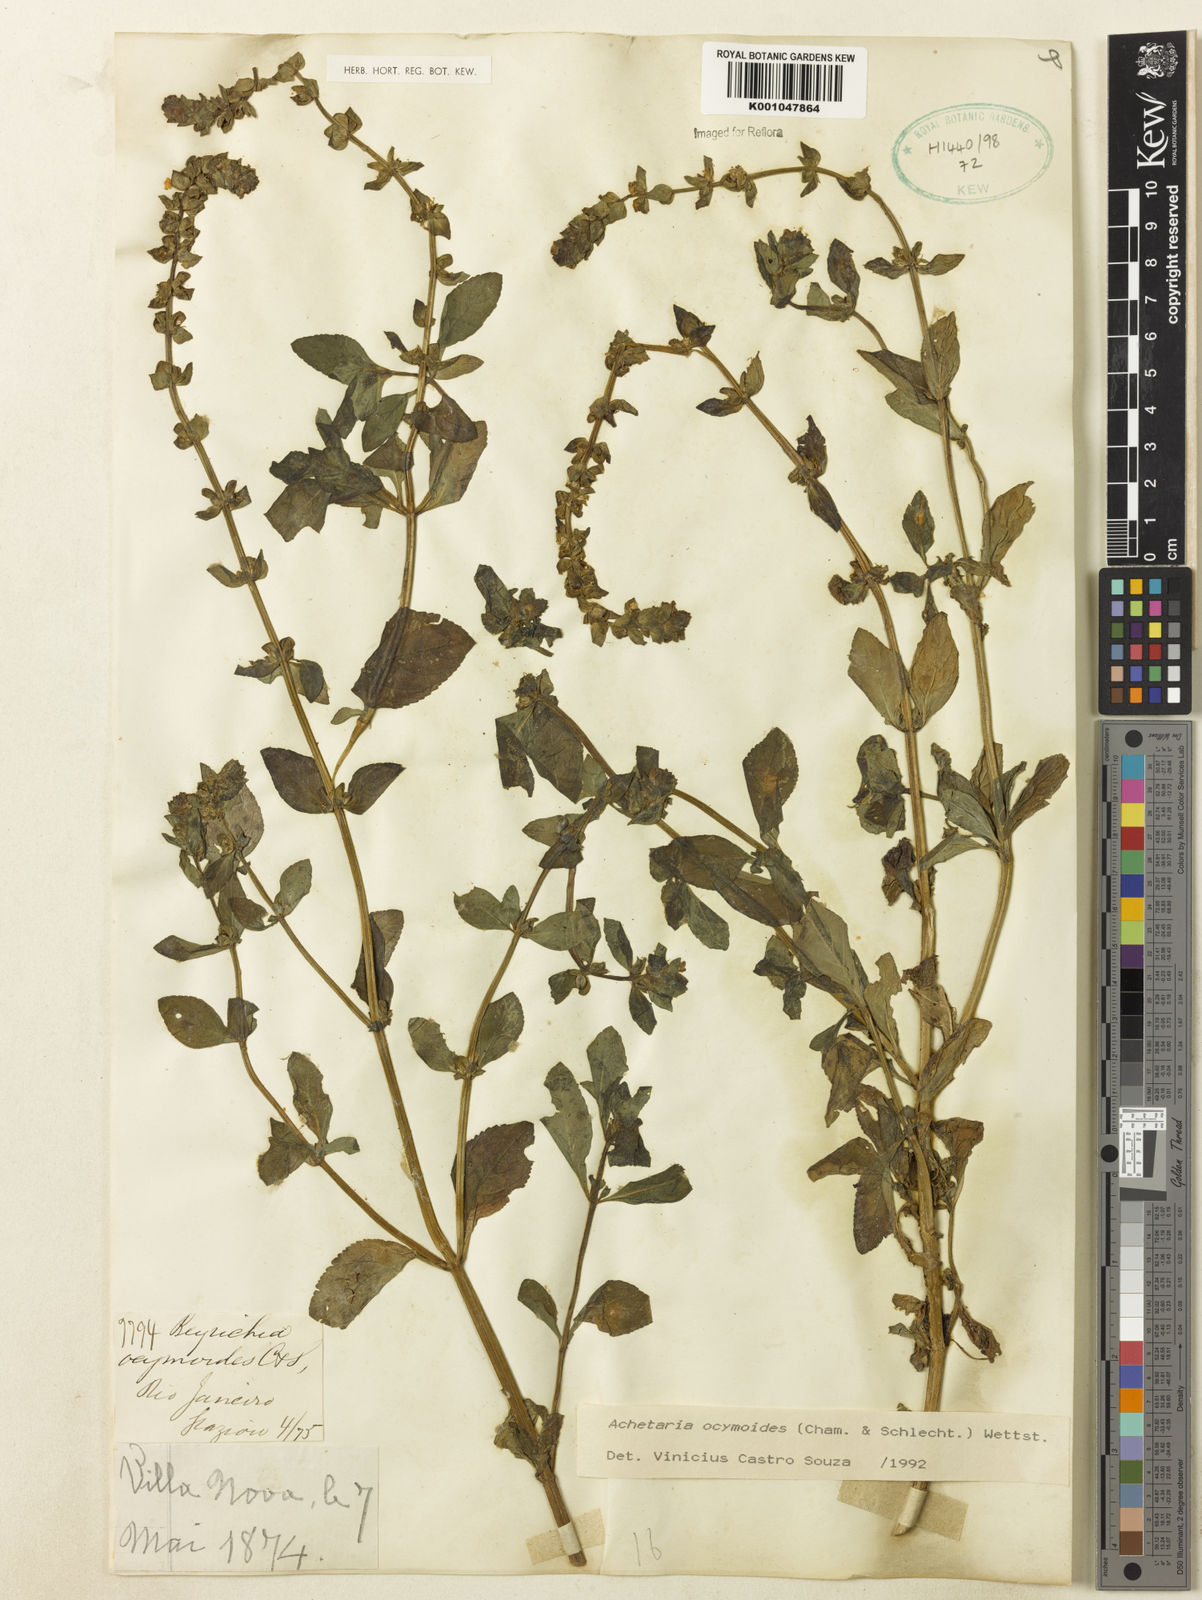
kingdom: Plantae
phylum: Tracheophyta
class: Magnoliopsida
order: Lamiales
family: Plantaginaceae
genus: Matourea
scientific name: Matourea ocymoides
